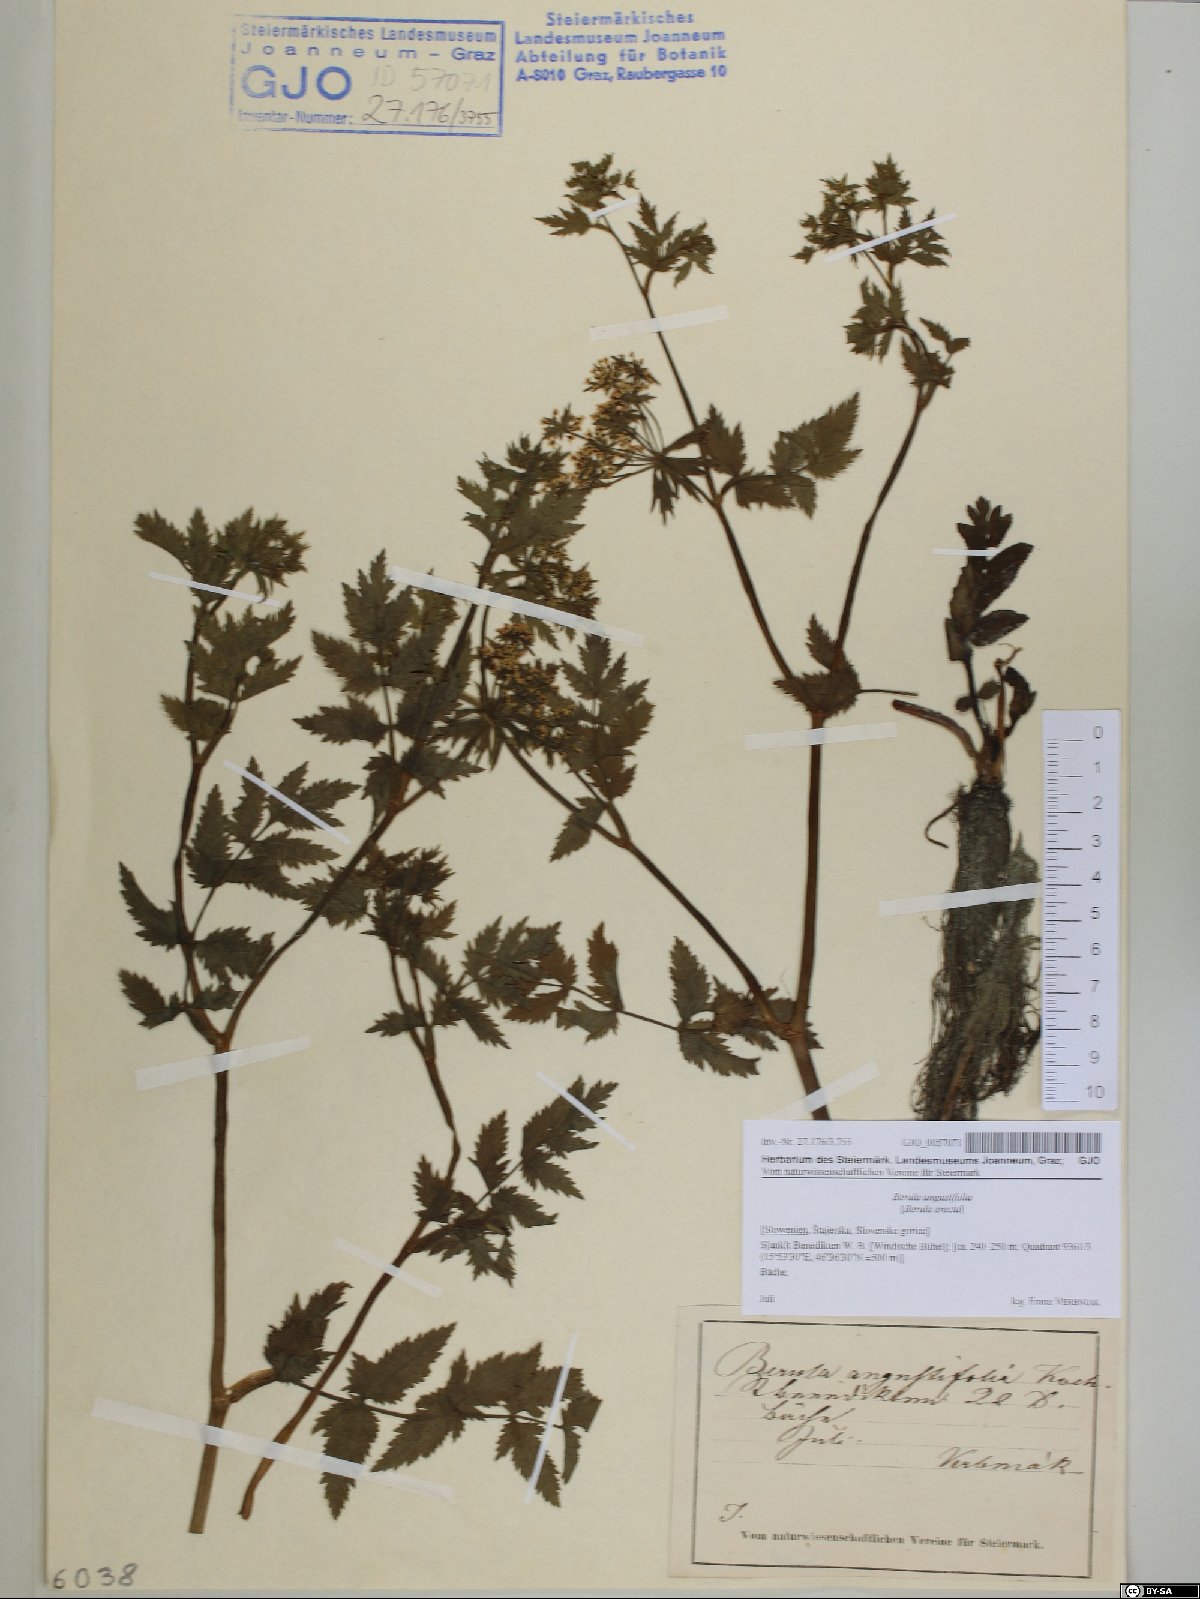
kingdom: Plantae
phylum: Tracheophyta
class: Magnoliopsida
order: Apiales
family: Apiaceae
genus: Berula
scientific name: Berula erecta
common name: Lesser water-parsnip
